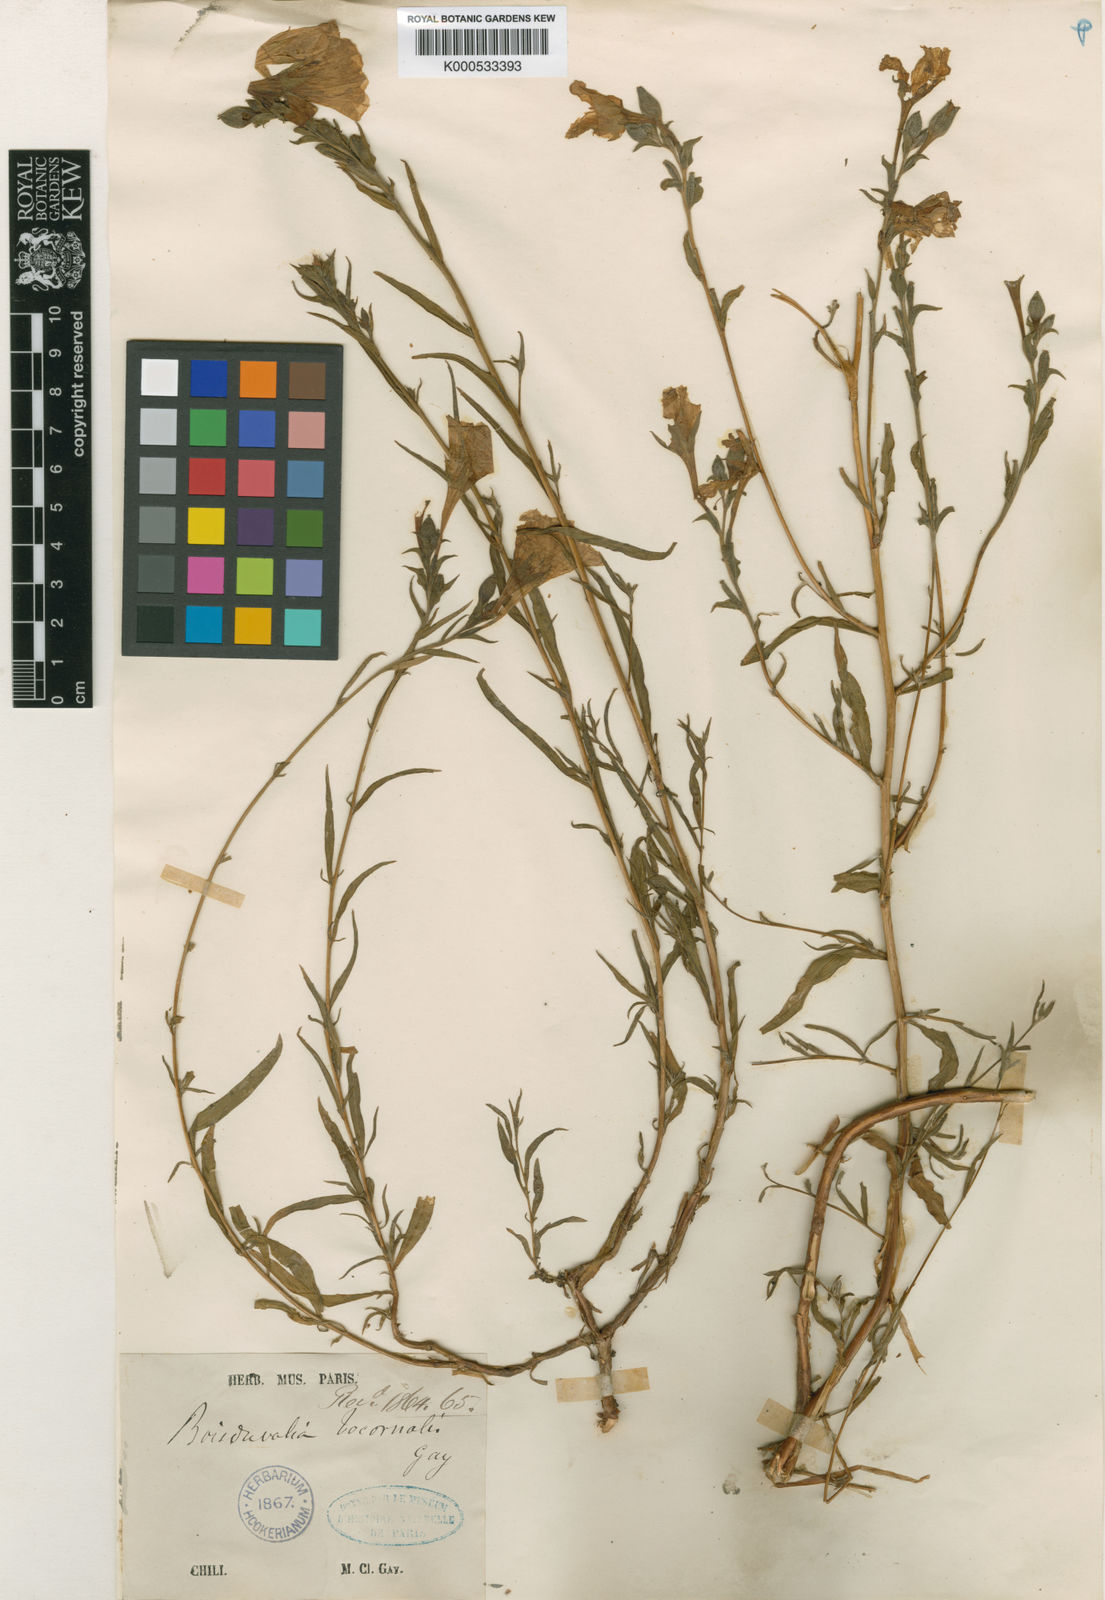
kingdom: Plantae
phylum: Tracheophyta
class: Magnoliopsida
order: Myrtales
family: Onagraceae
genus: Epilobium
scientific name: Epilobium subdentatum
